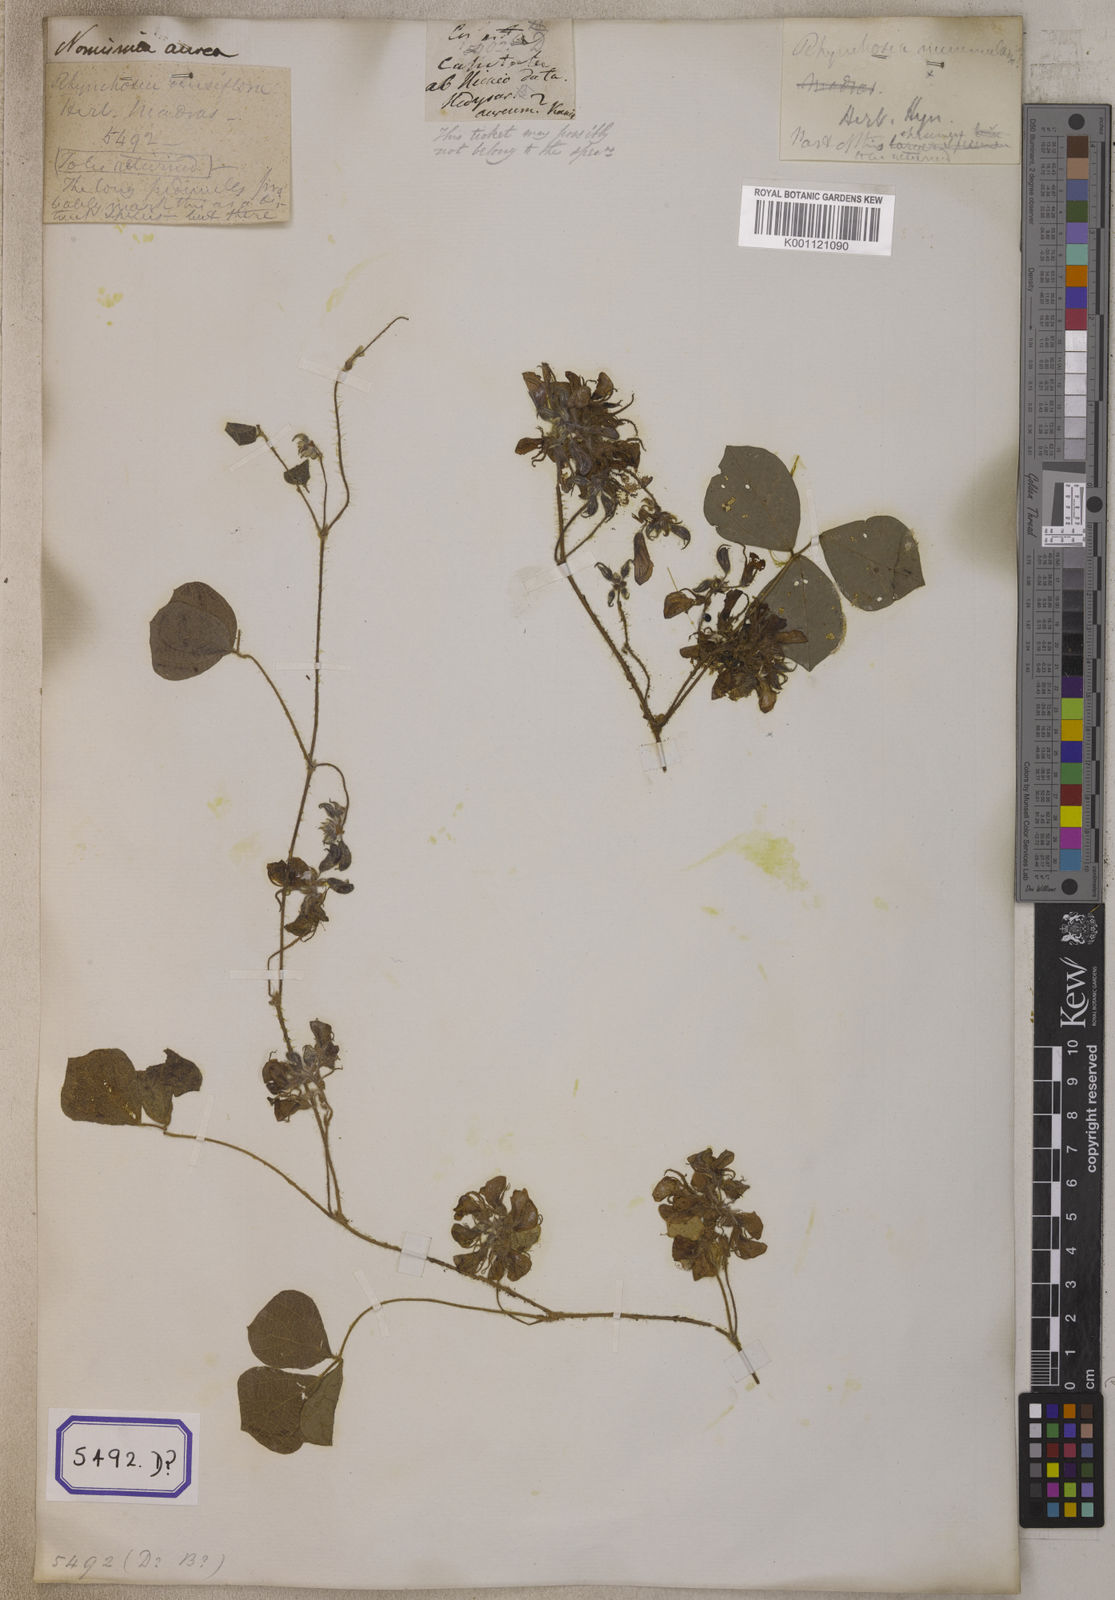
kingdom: Plantae
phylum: Tracheophyta
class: Magnoliopsida
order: Fabales
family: Fabaceae
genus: Rhynchosia
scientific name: Rhynchosia aurea
